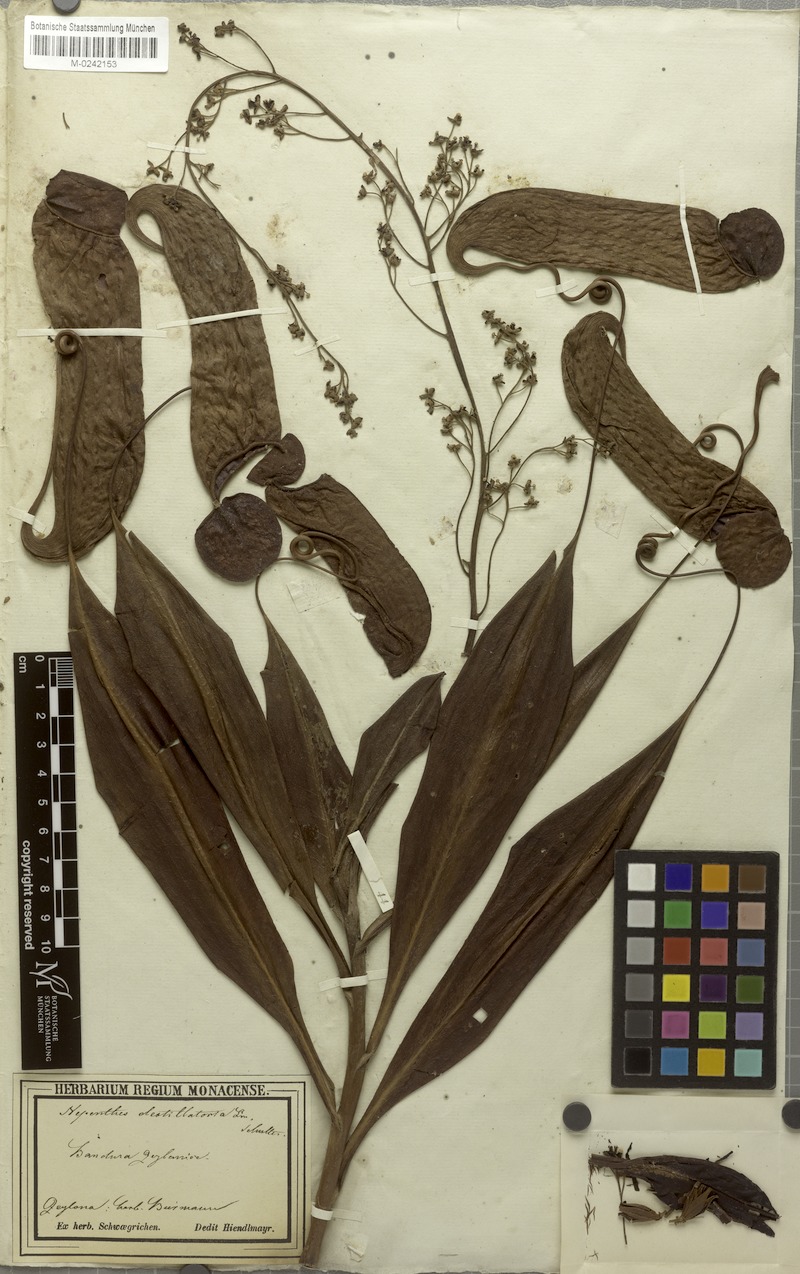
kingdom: Plantae
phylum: Tracheophyta
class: Magnoliopsida
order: Caryophyllales
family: Nepenthaceae
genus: Nepenthes
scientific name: Nepenthes distillatoria
